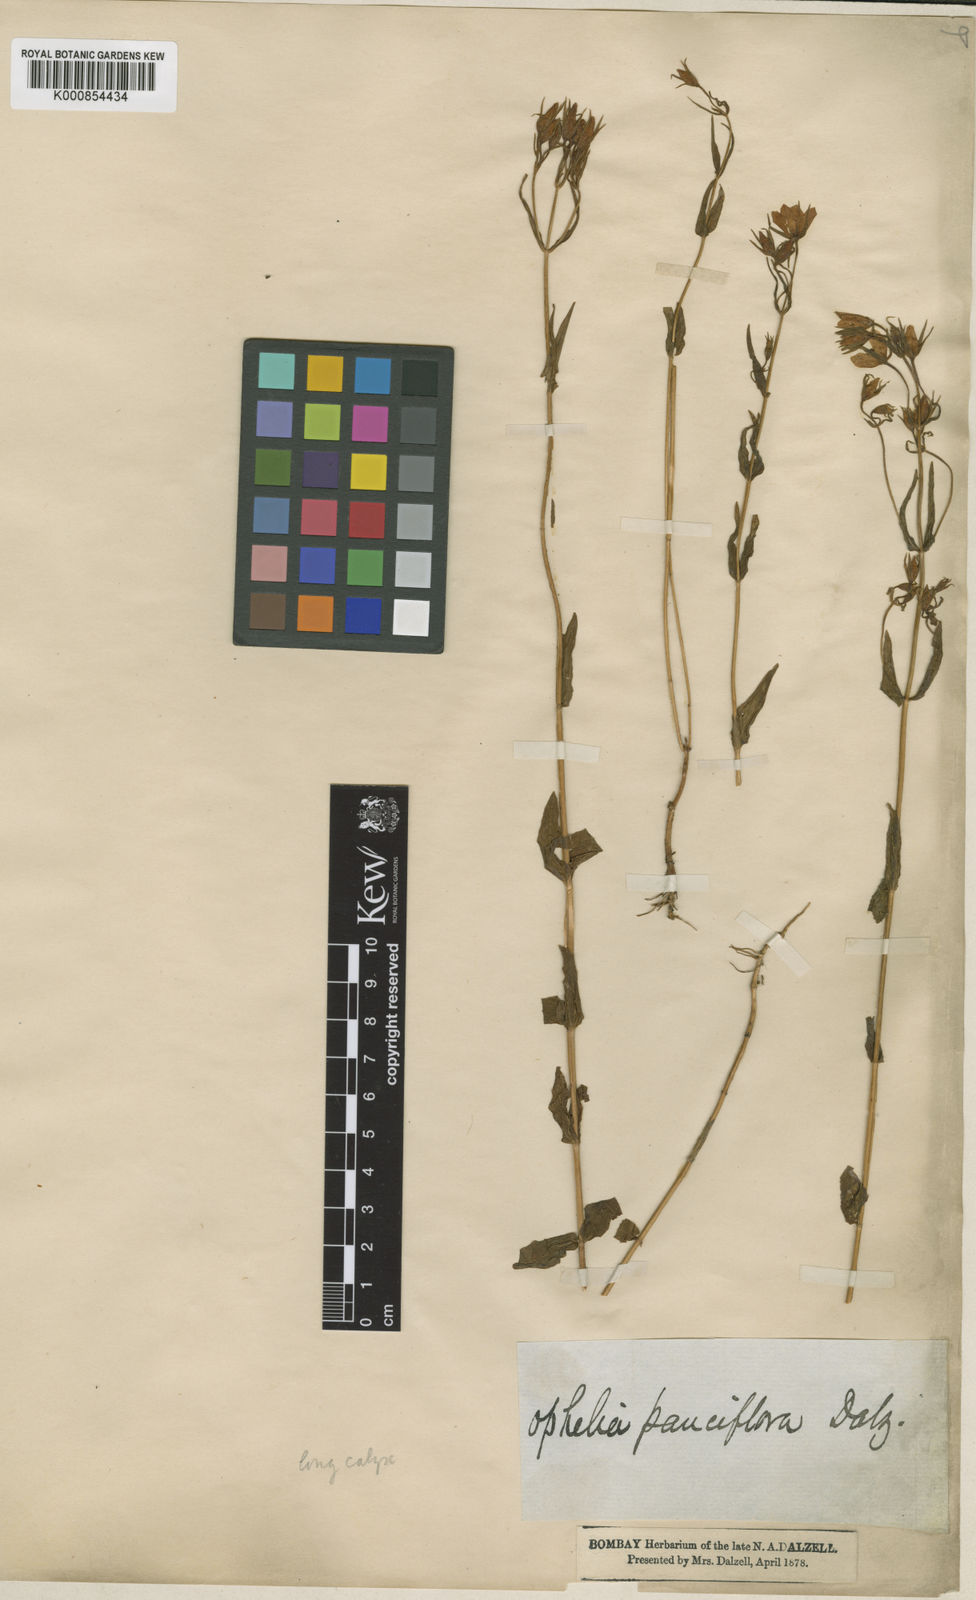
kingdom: Plantae
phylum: Tracheophyta
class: Magnoliopsida
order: Gentianales
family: Gentianaceae
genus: Swertia
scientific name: Swertia
